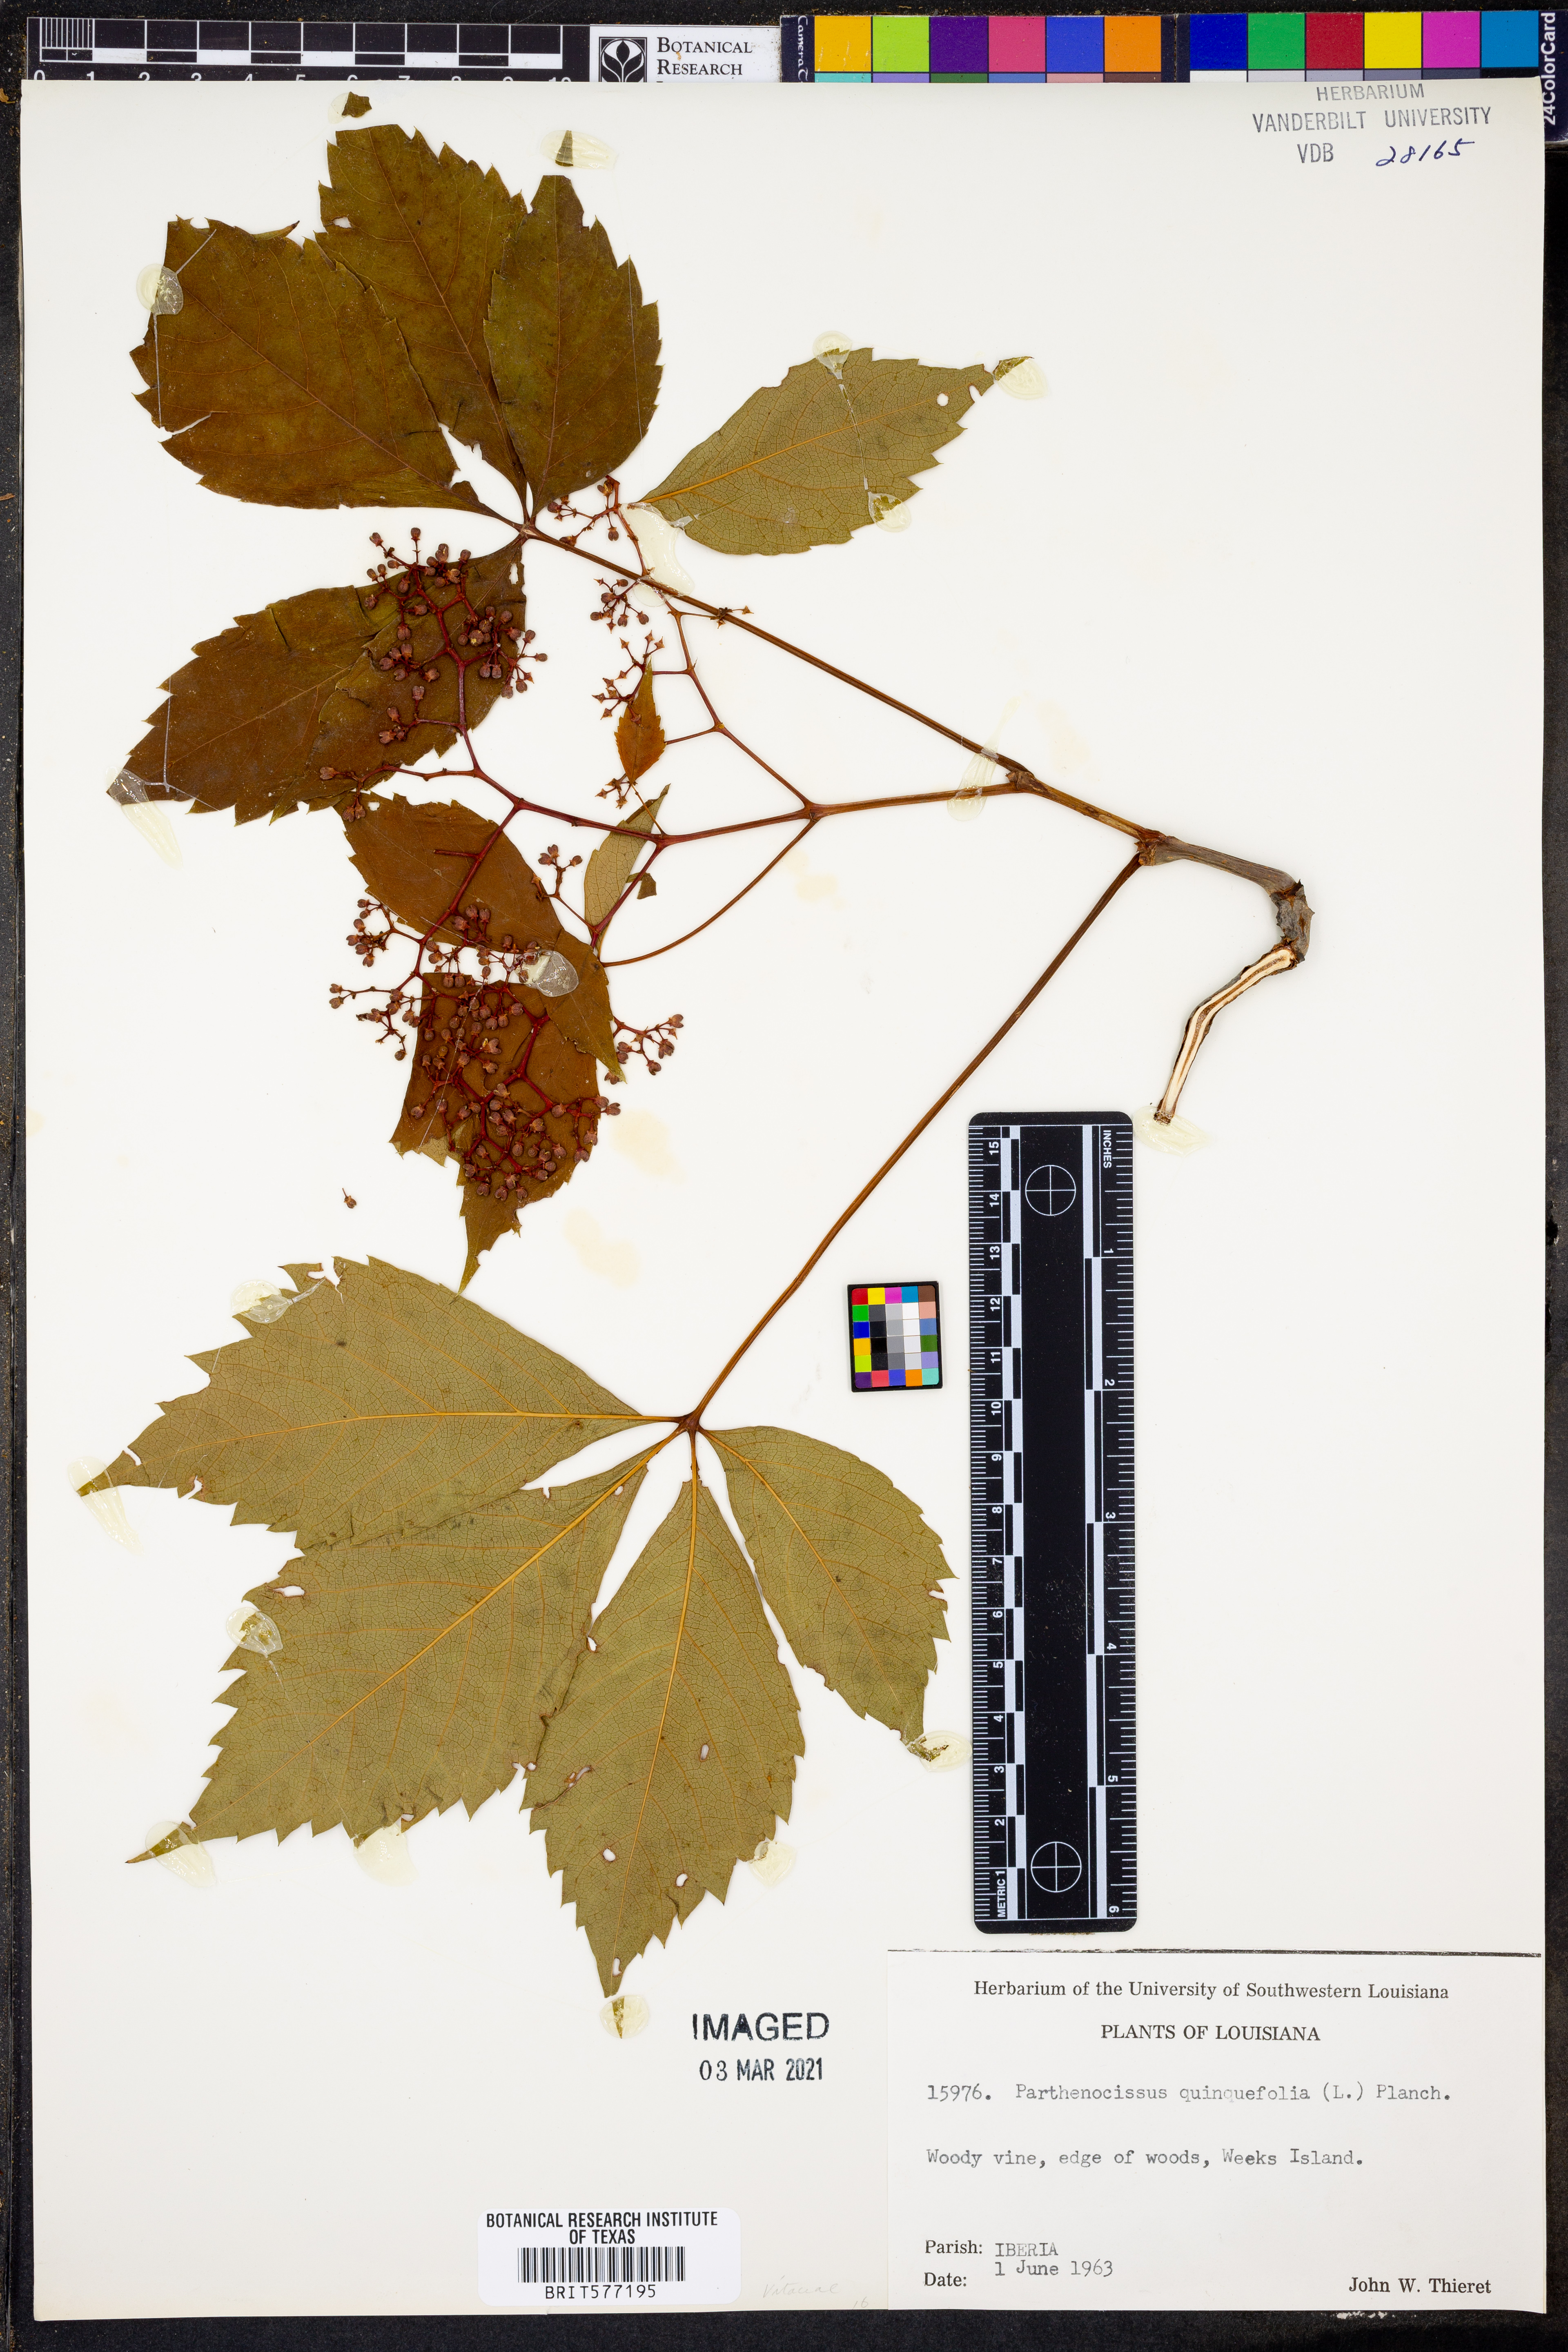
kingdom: Plantae
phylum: Tracheophyta
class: Magnoliopsida
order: Vitales
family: Vitaceae
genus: Parthenocissus
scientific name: Parthenocissus quinquefolia
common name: Virginia-creeper
